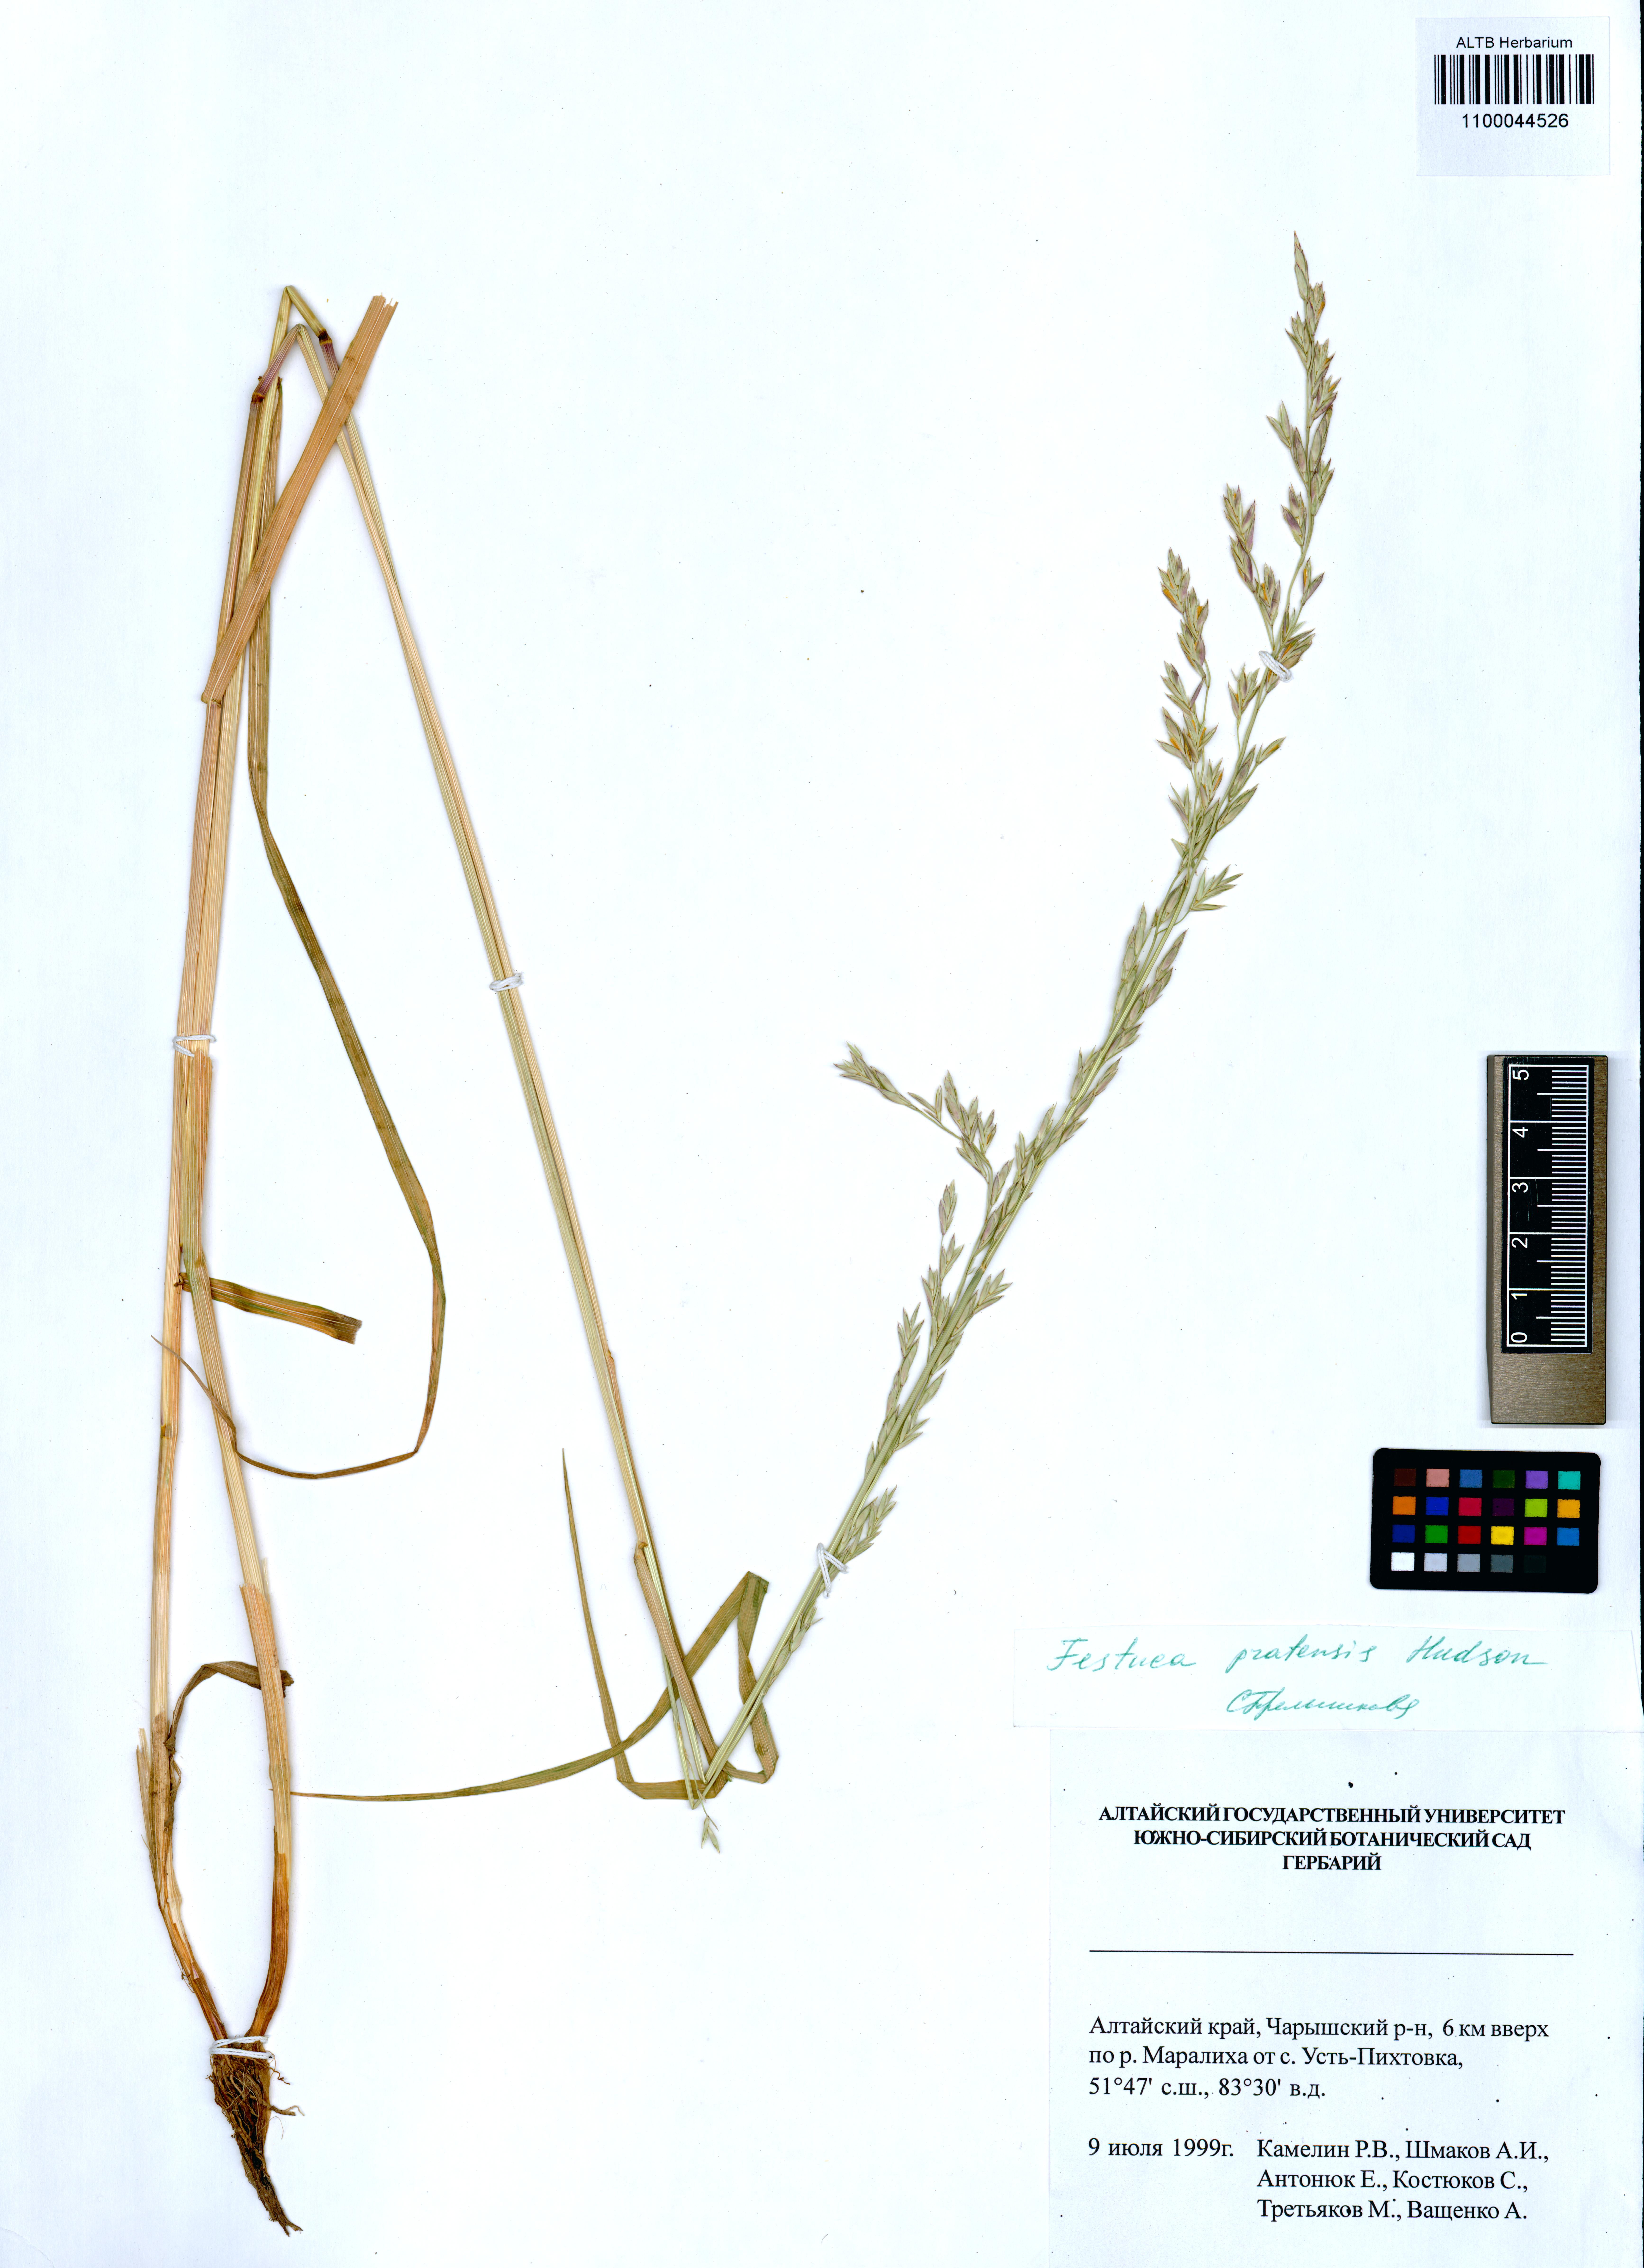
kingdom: Plantae
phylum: Tracheophyta
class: Liliopsida
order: Poales
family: Poaceae
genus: Lolium
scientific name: Lolium pratense
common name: Dover grass
